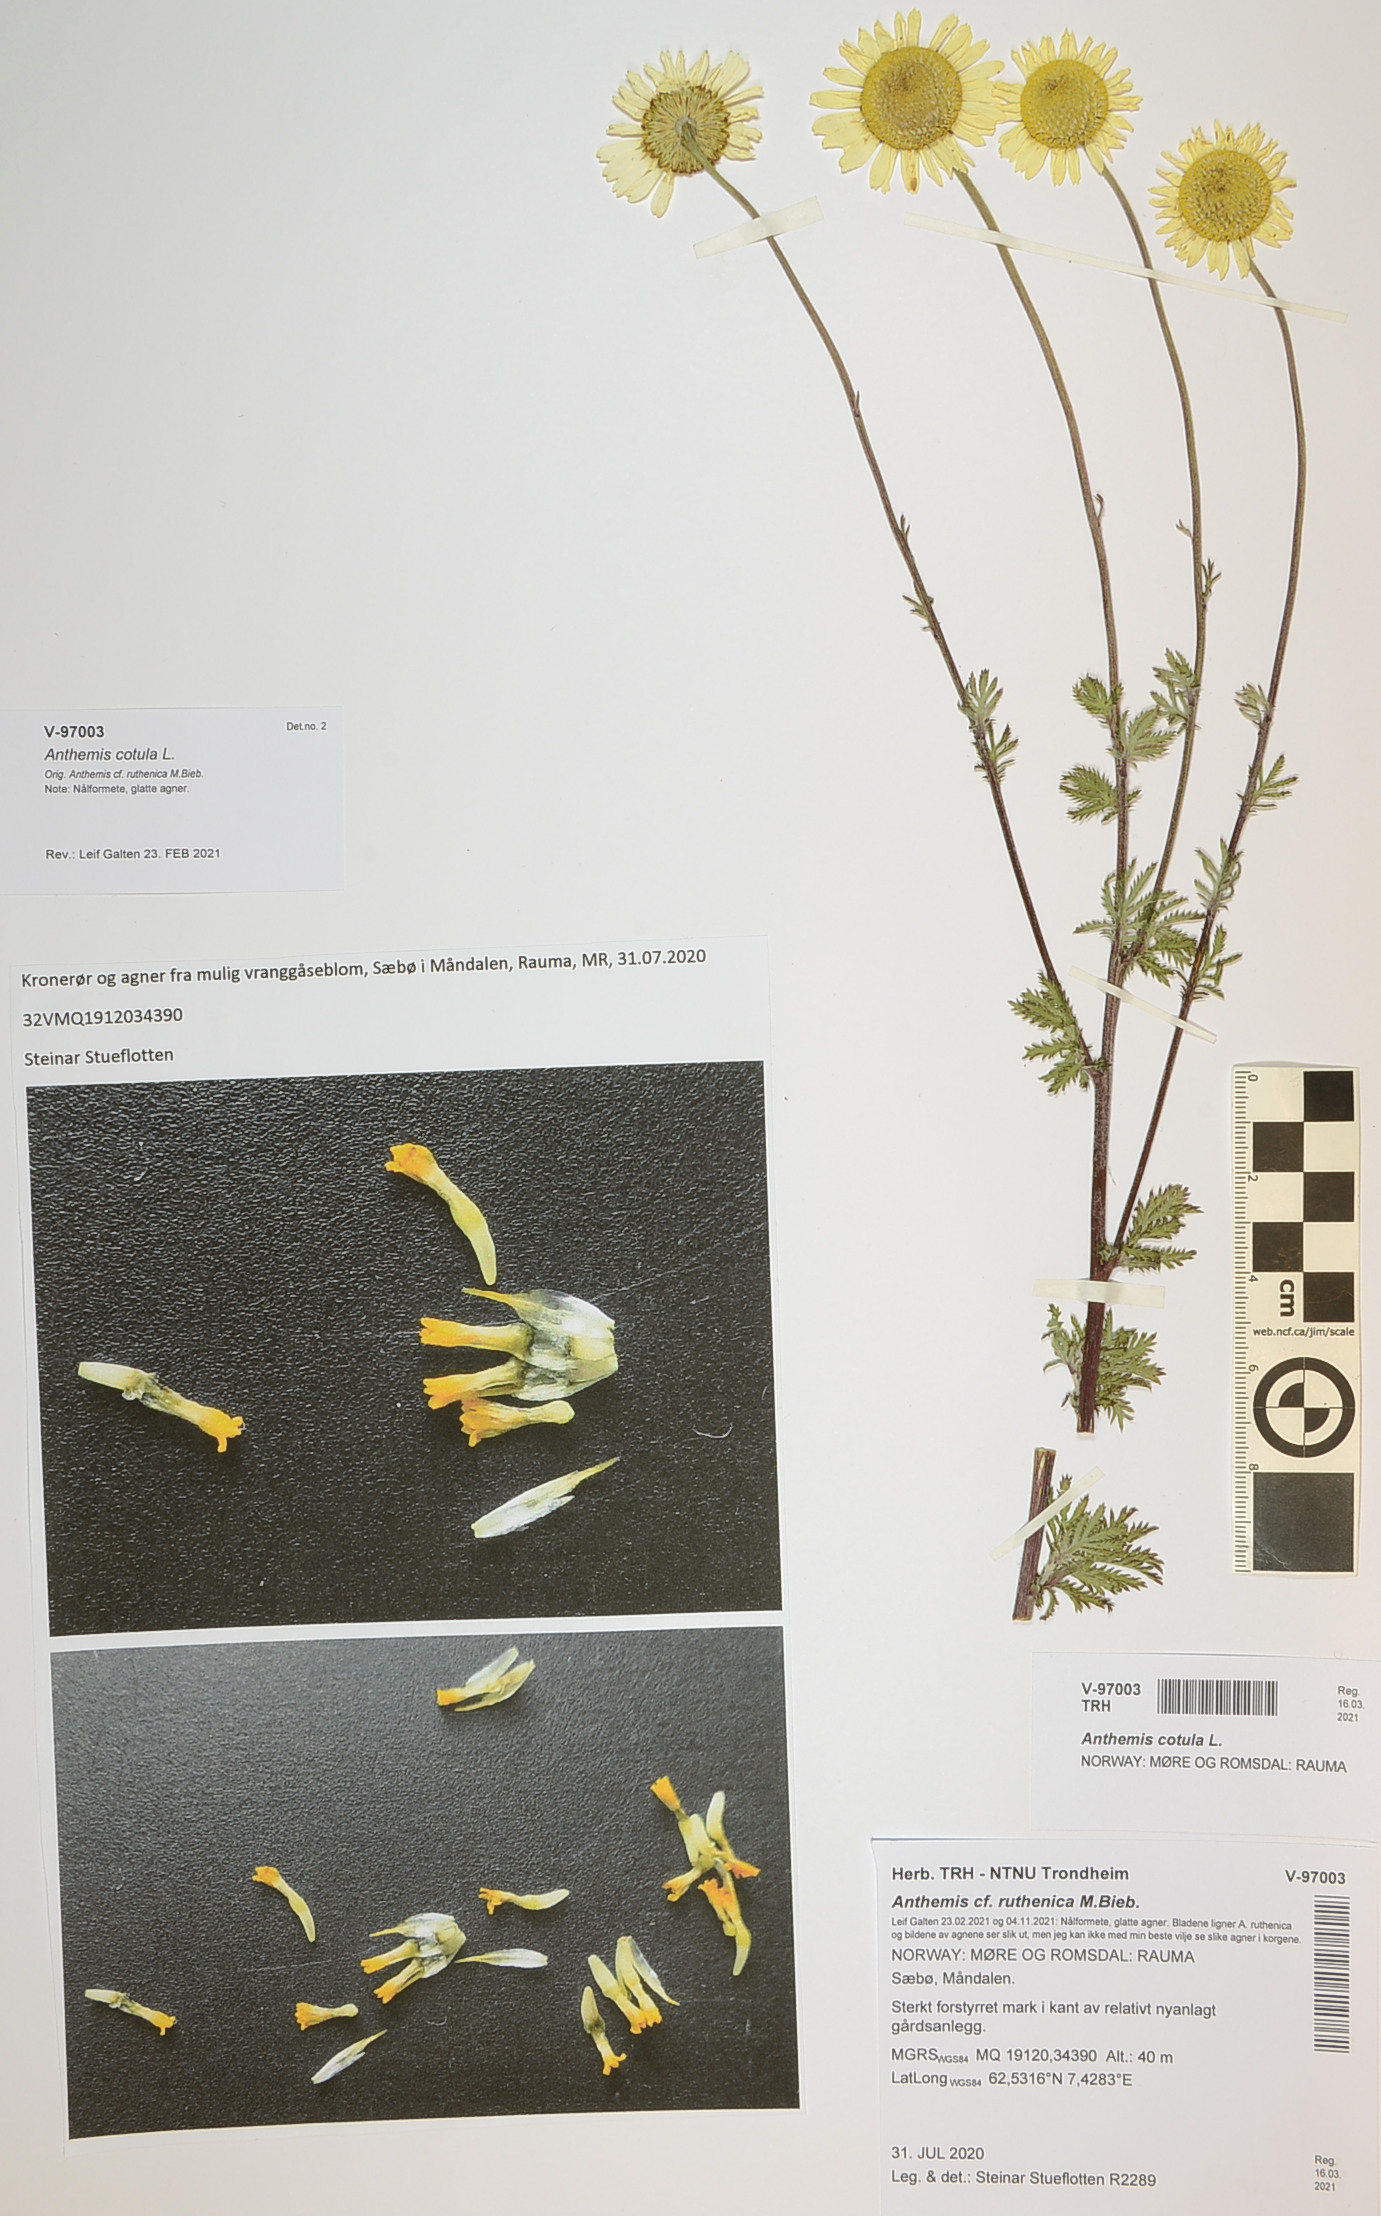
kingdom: Plantae
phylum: Tracheophyta
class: Magnoliopsida
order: Asterales
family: Asteraceae
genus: Anthemis
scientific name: Anthemis ruthenica
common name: Eastern chamomile
